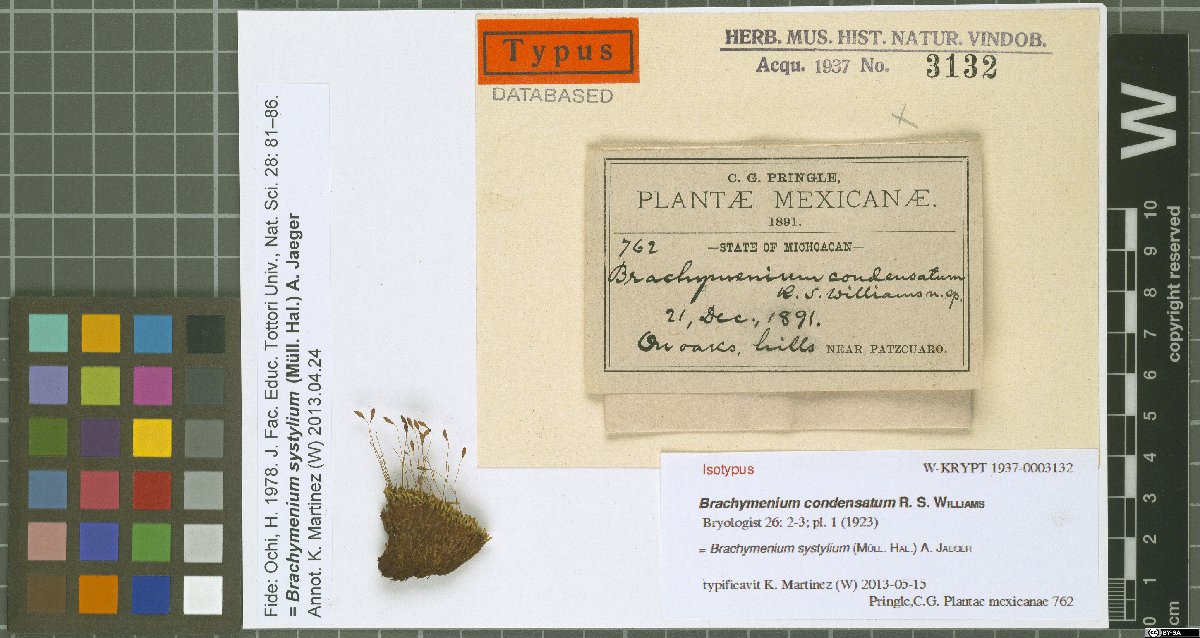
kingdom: Plantae
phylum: Bryophyta
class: Bryopsida
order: Bryales
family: Bryaceae
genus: Leptostomopsis
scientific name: Leptostomopsis systylia
